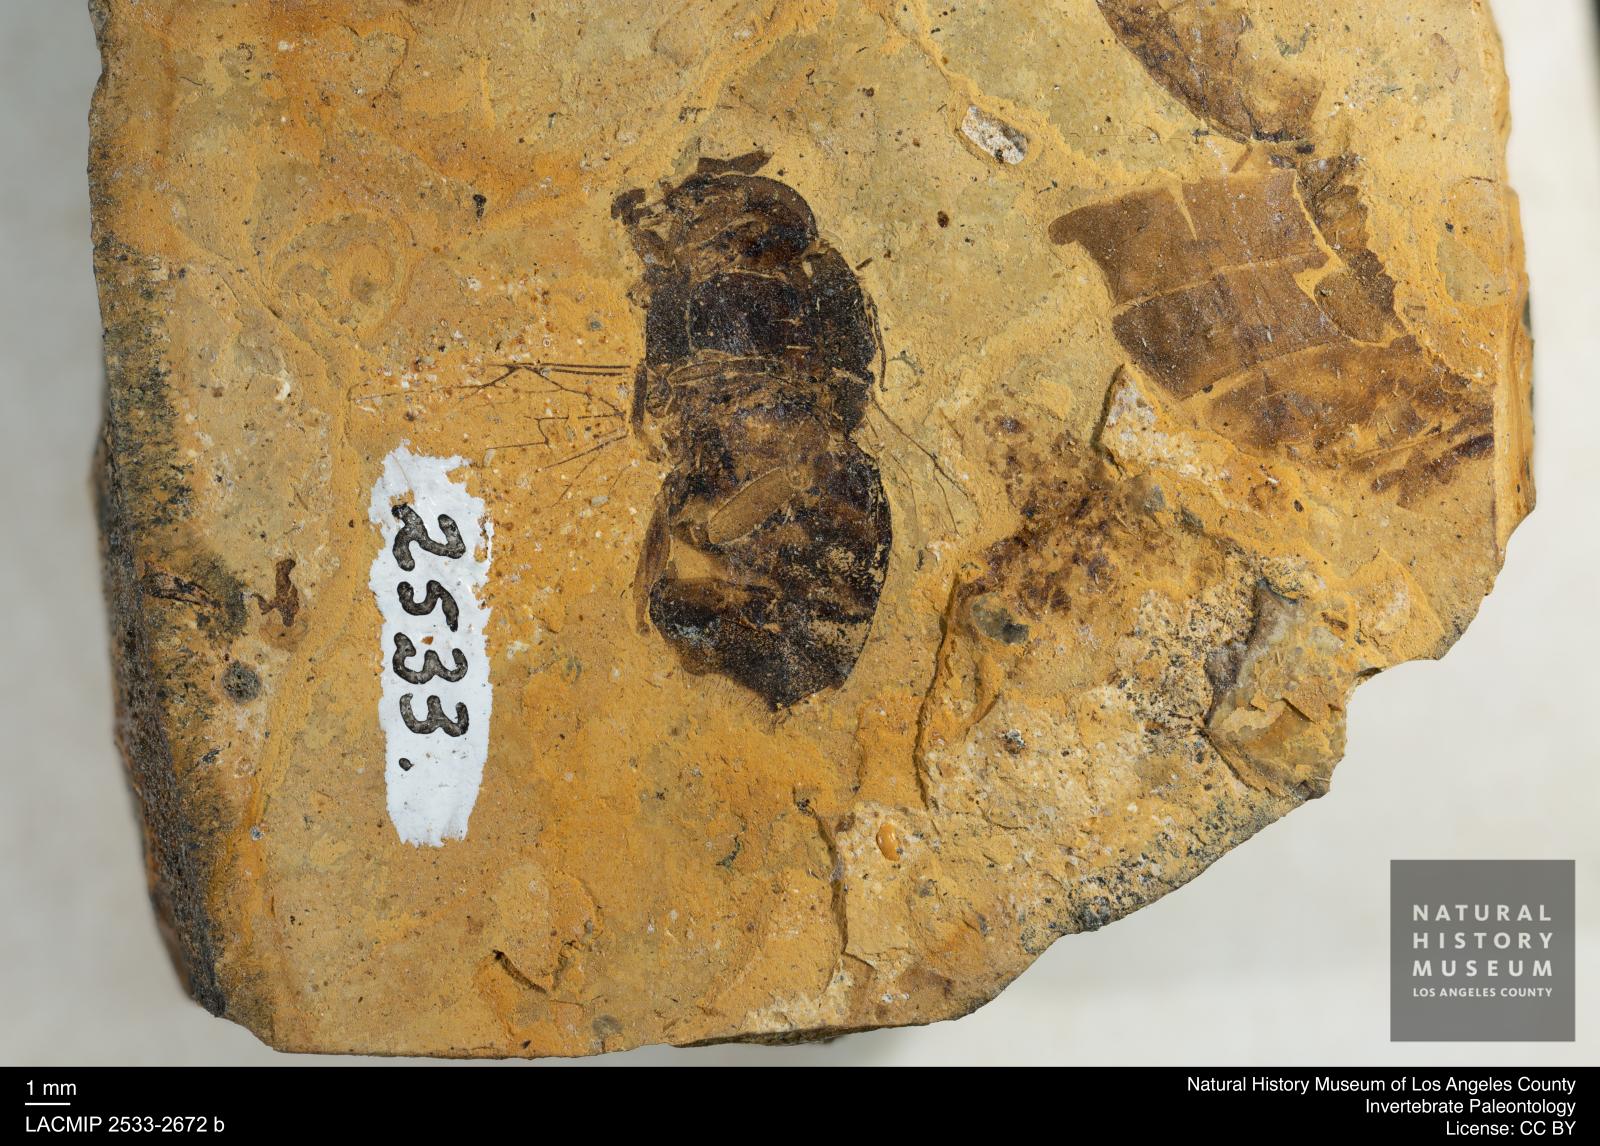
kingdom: Animalia
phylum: Arthropoda
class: Insecta
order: Hymenoptera
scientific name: Hymenoptera
